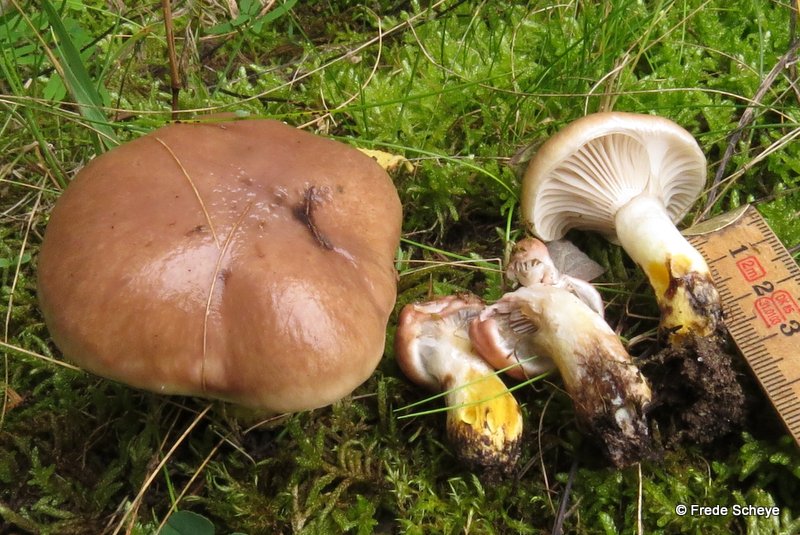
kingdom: Fungi
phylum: Basidiomycota
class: Agaricomycetes
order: Boletales
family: Gomphidiaceae
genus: Gomphidius
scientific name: Gomphidius glutinosus
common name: grå slimslør
